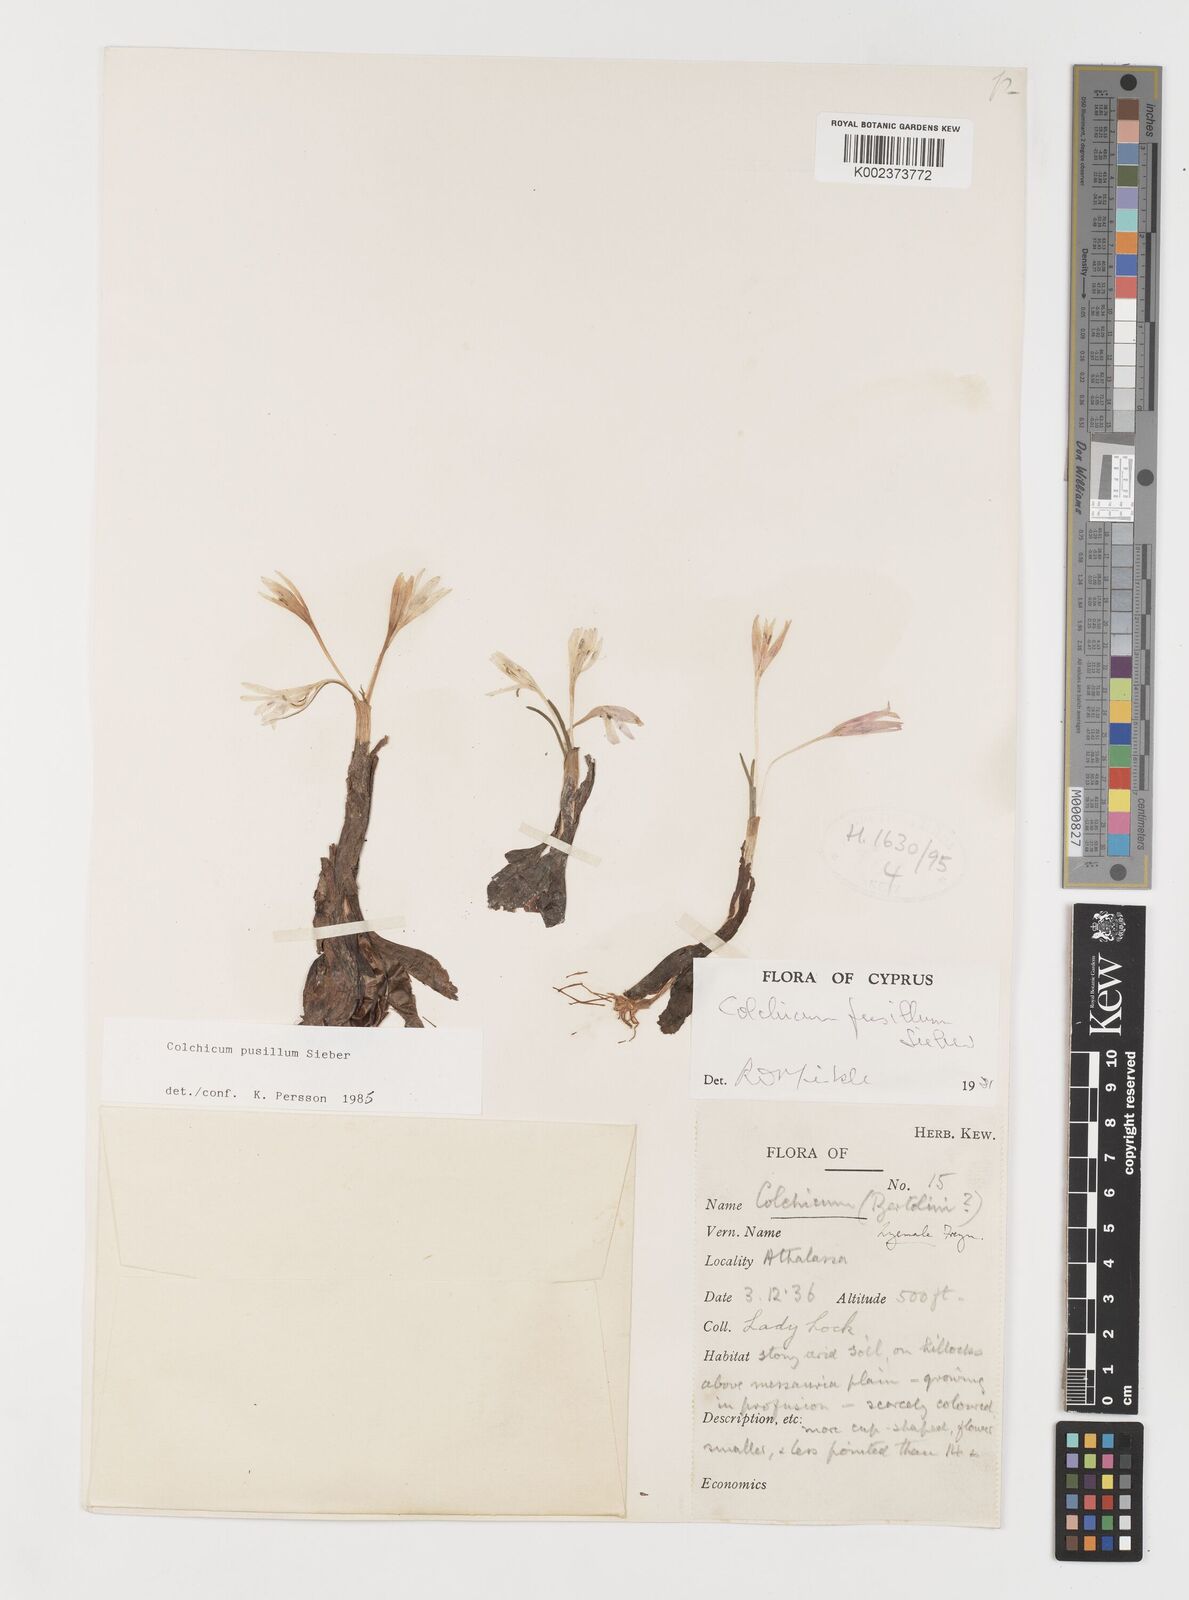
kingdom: Plantae
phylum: Tracheophyta
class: Liliopsida
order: Liliales
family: Colchicaceae
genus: Colchicum
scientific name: Colchicum pusillum
